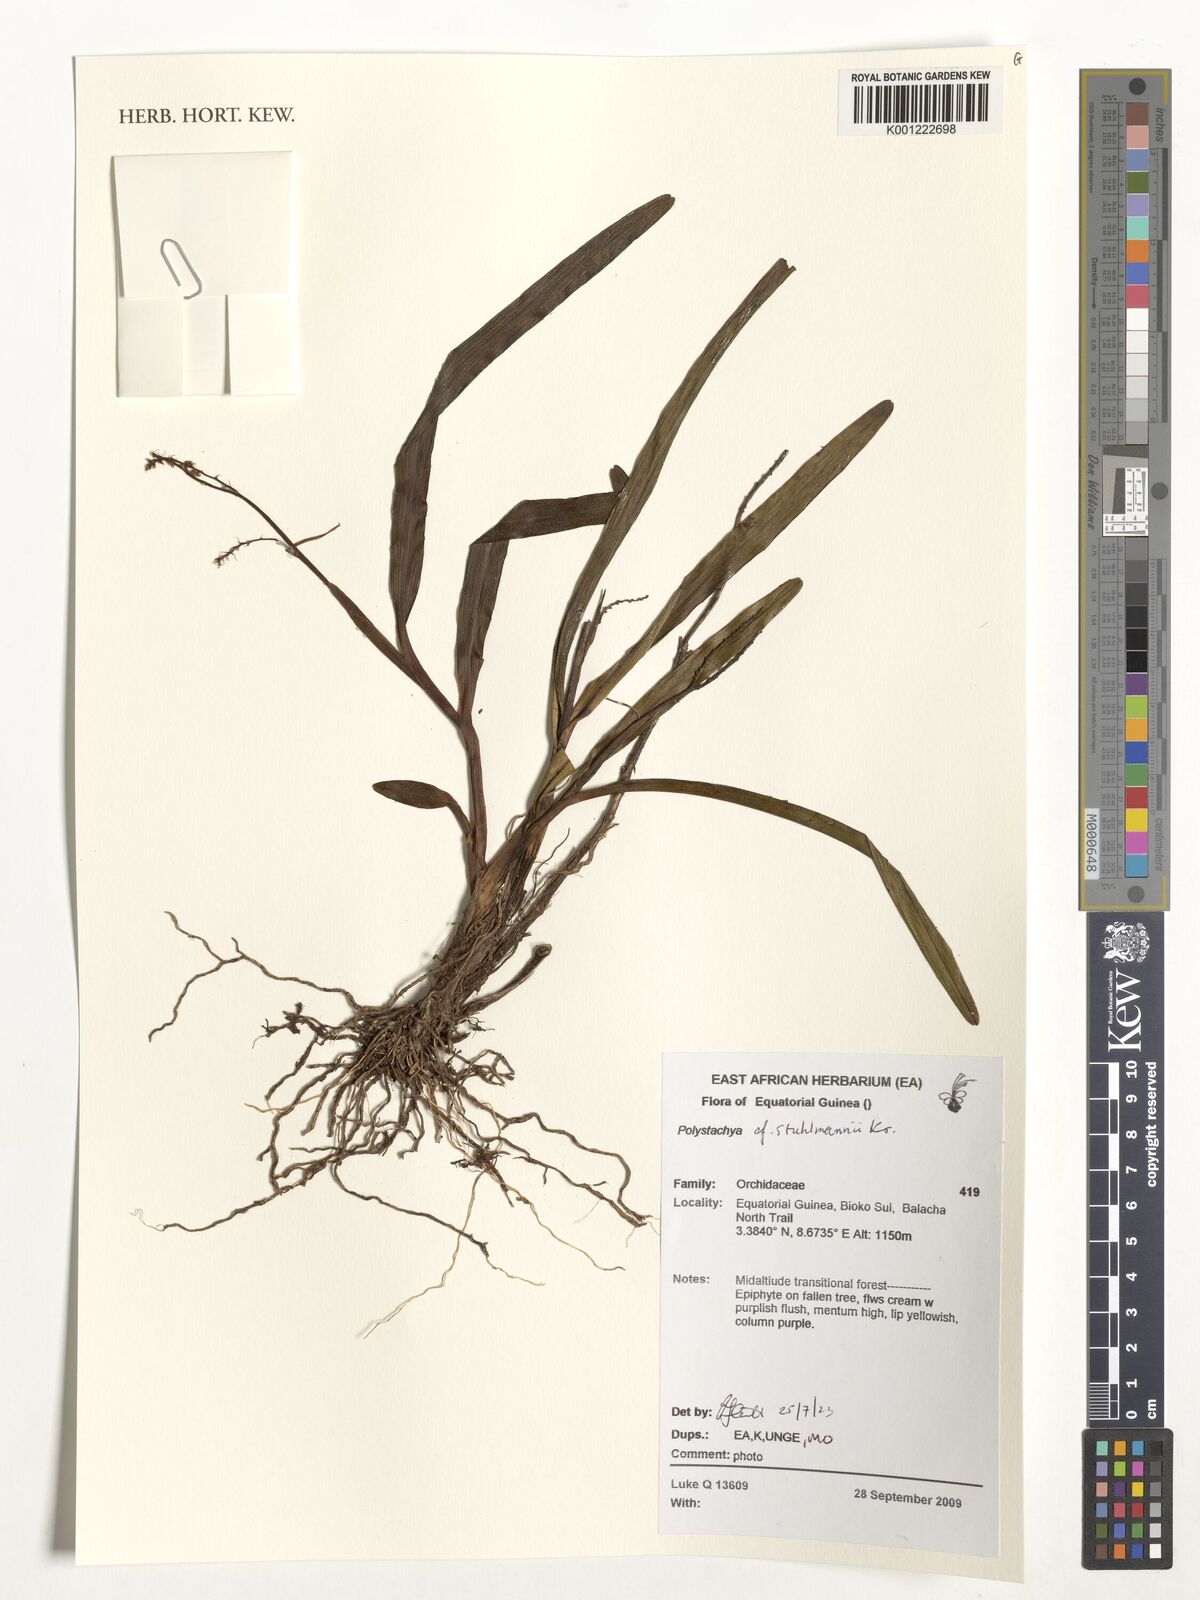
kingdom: Plantae
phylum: Tracheophyta
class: Liliopsida
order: Asparagales
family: Orchidaceae
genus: Polystachya
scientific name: Polystachya stuhlmannii
